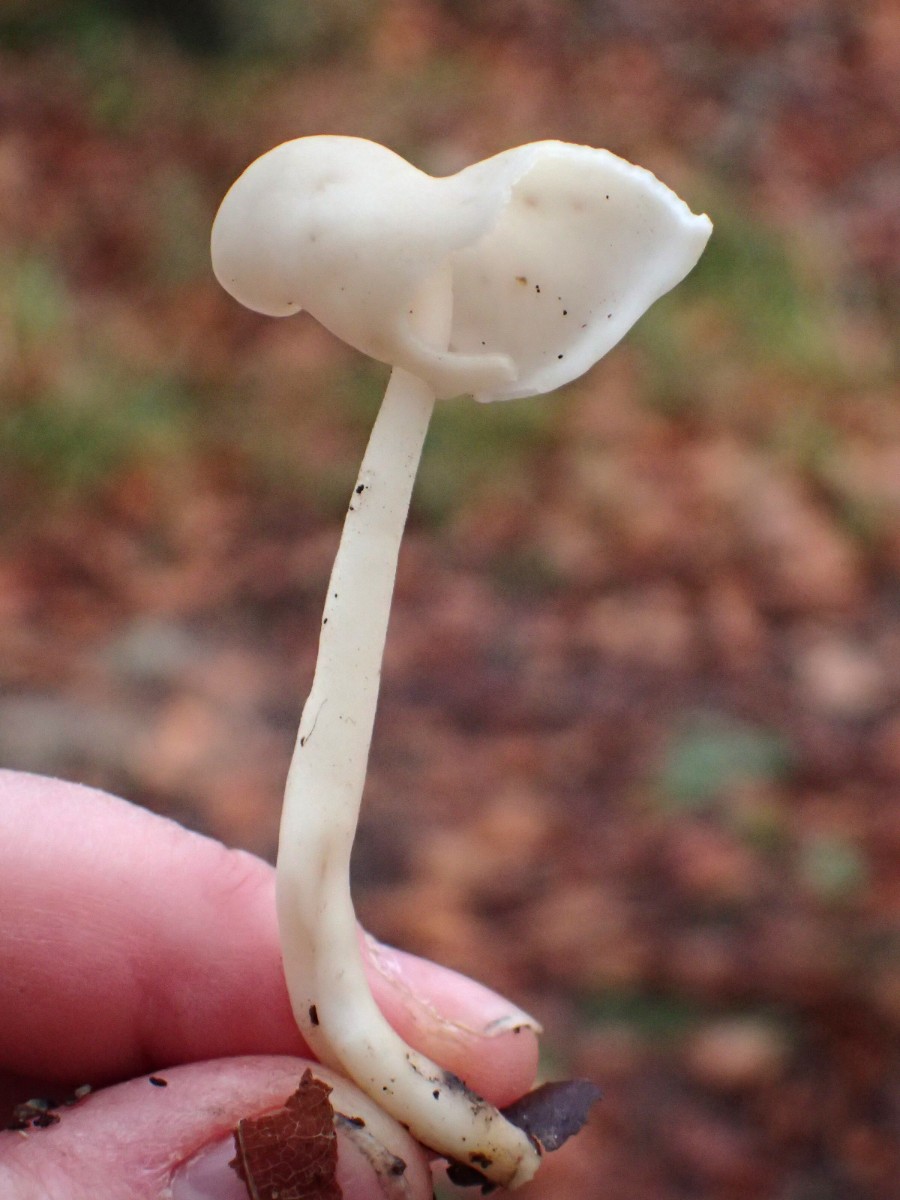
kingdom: Fungi
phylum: Ascomycota
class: Pezizomycetes
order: Pezizales
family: Helvellaceae
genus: Helvella
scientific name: Helvella elastica
